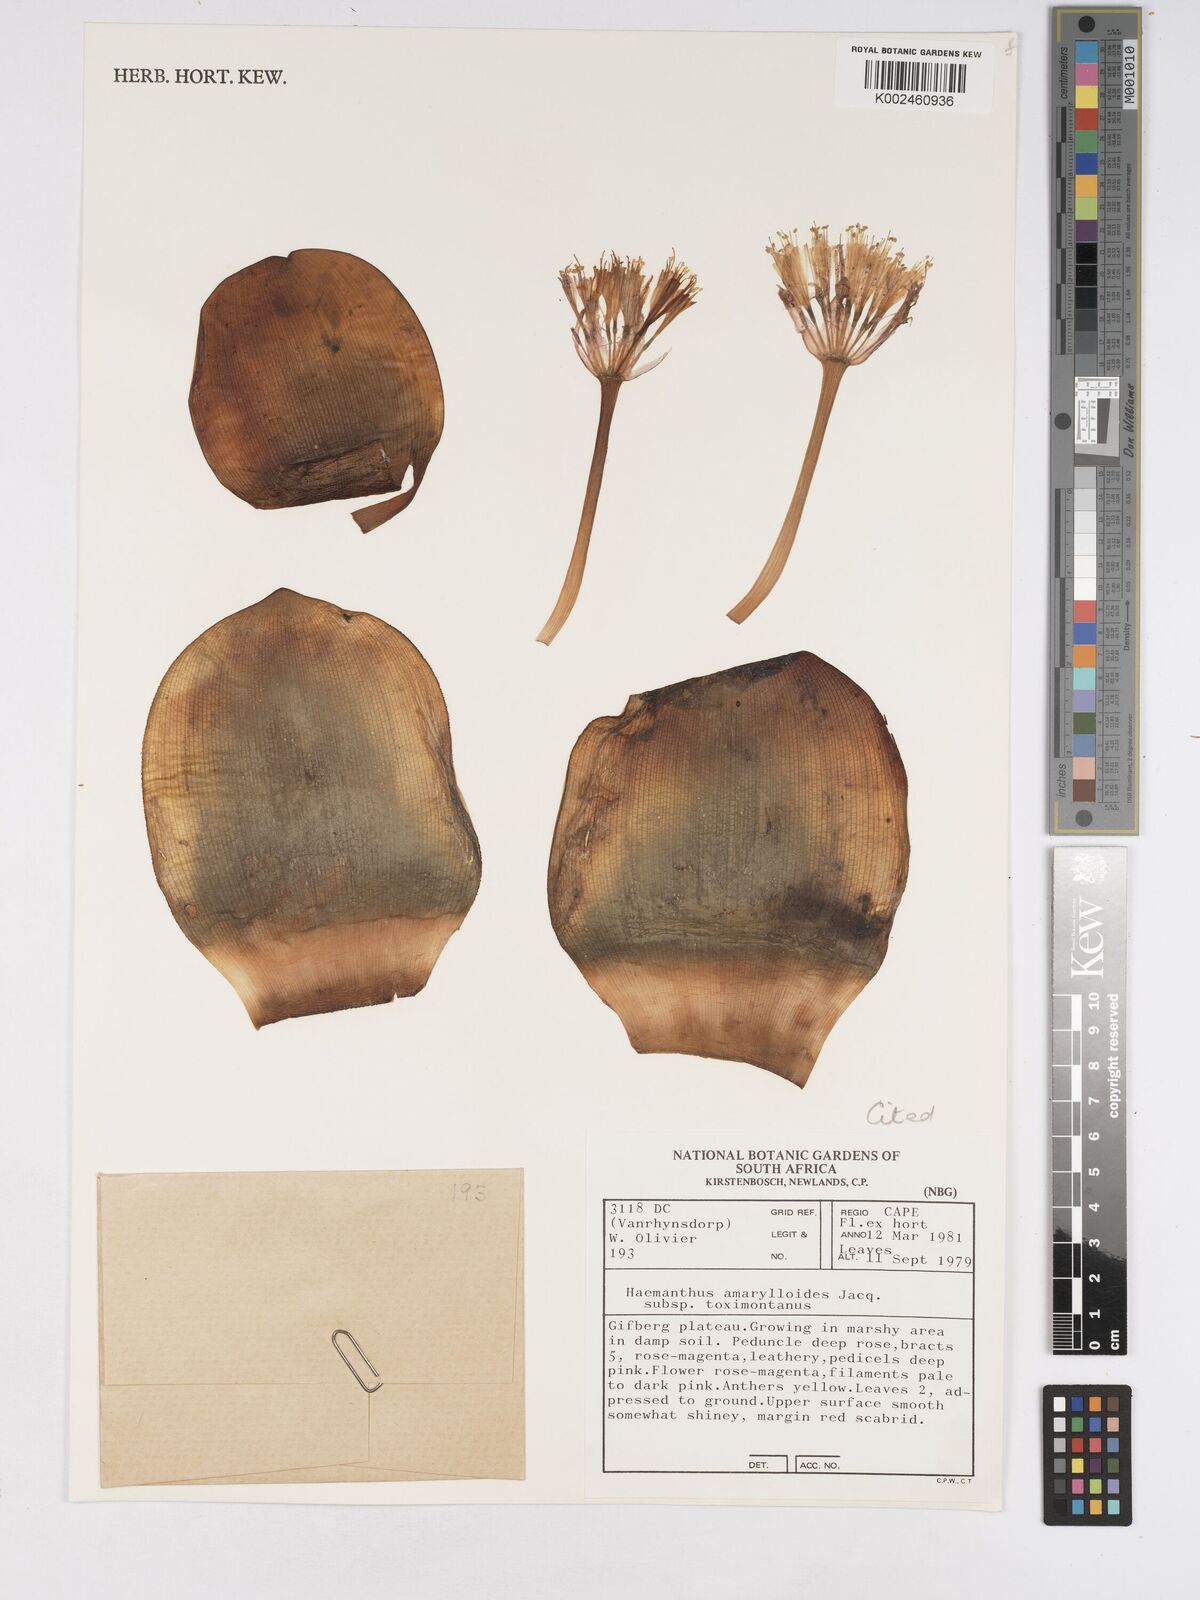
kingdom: Plantae
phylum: Tracheophyta
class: Liliopsida
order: Asparagales
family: Amaryllidaceae
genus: Haemanthus
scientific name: Haemanthus amarylloides
